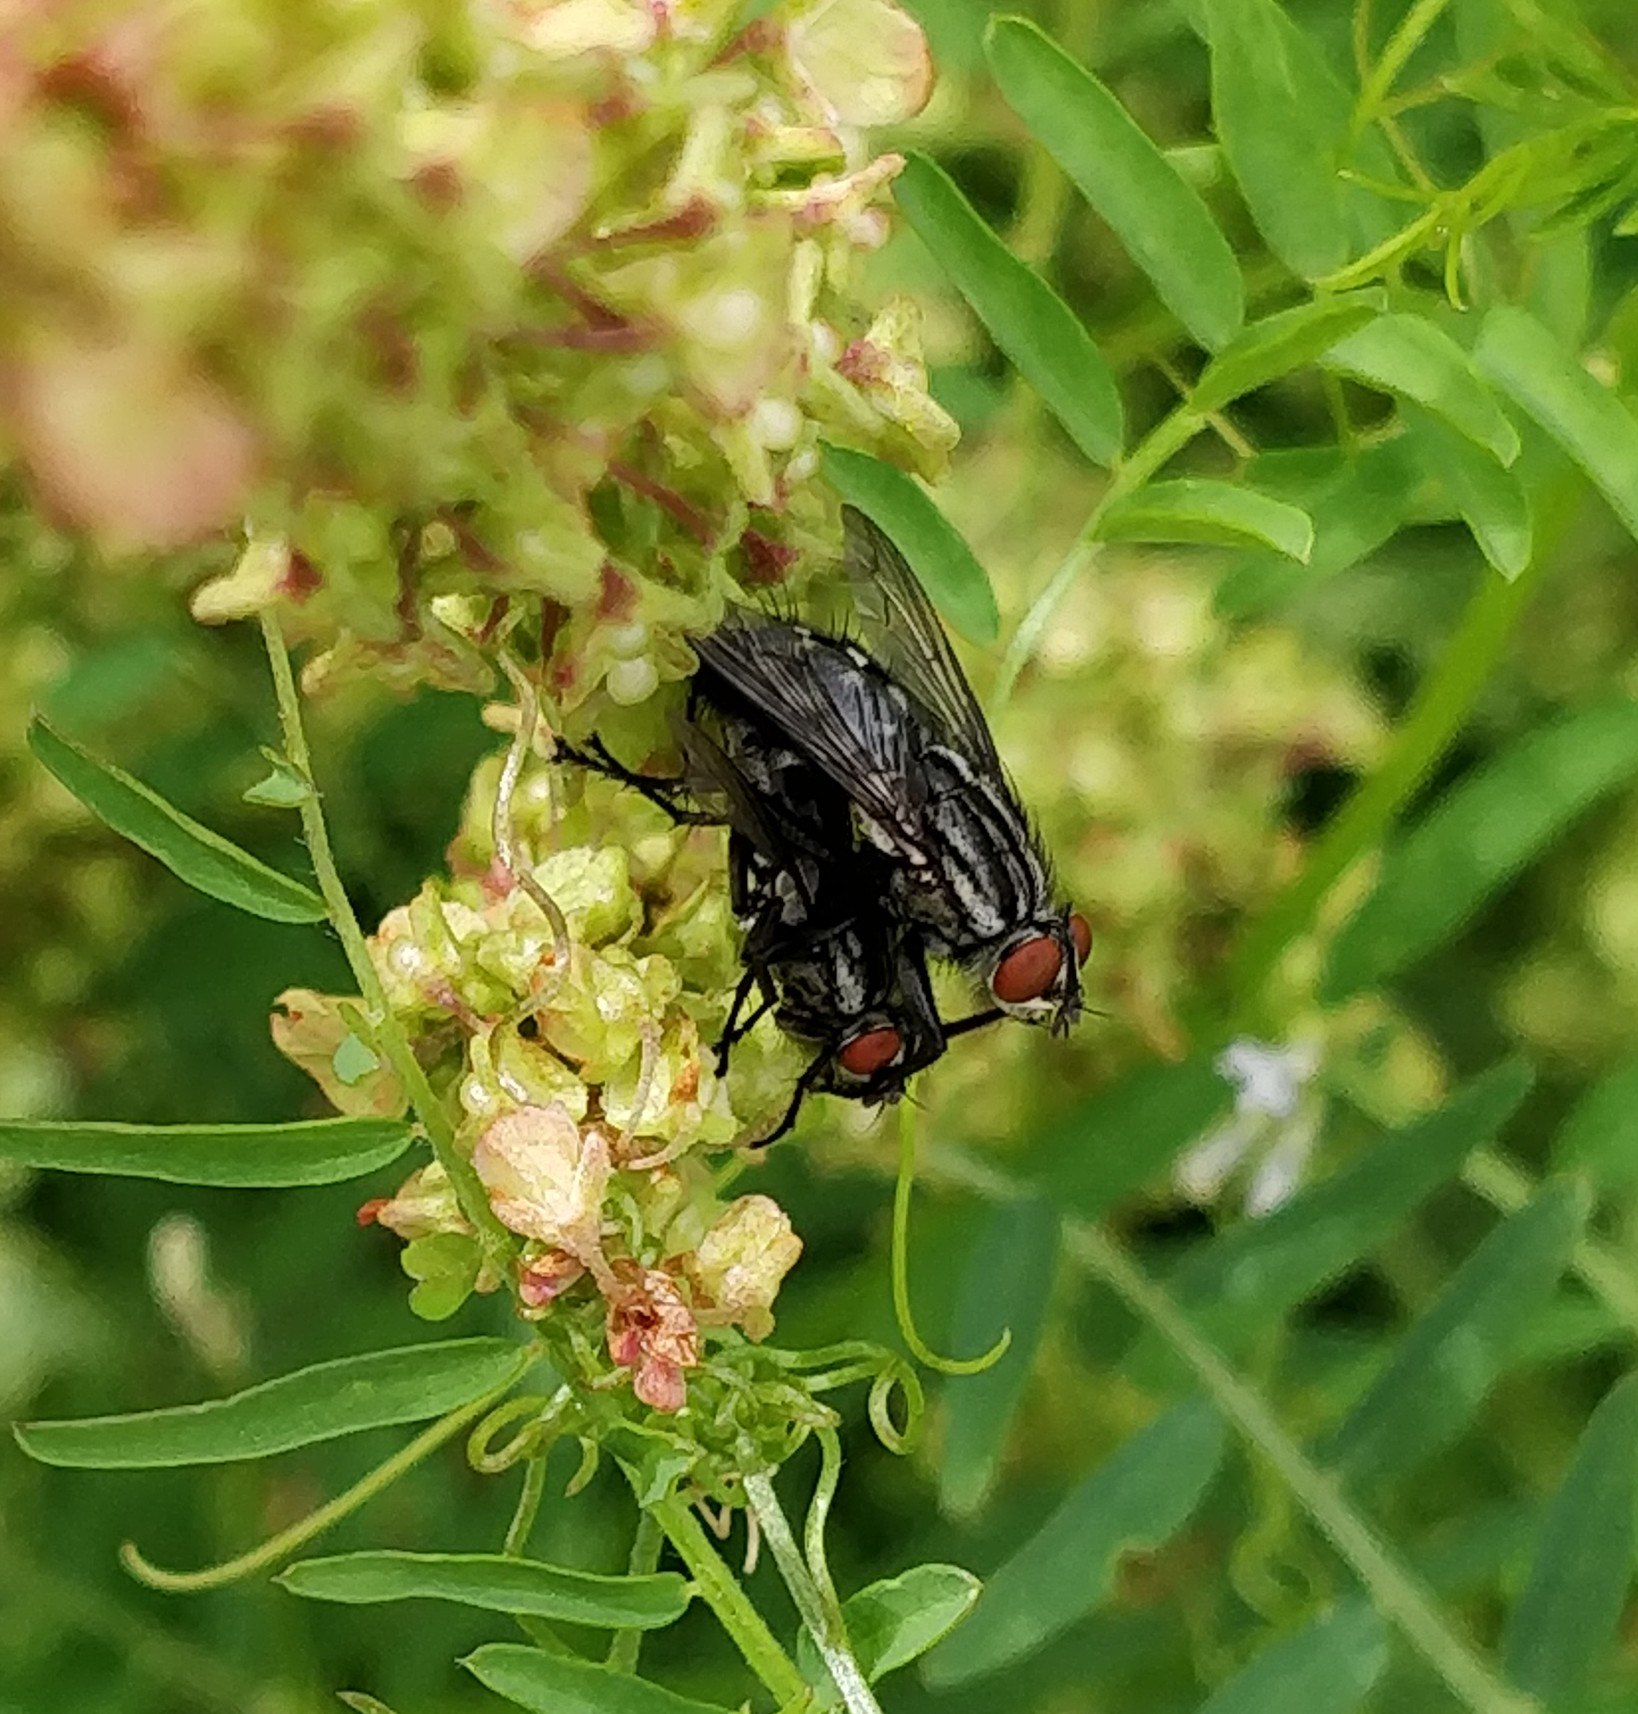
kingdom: Animalia
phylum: Arthropoda
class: Insecta
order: Diptera
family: Sarcophagidae
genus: Sarcophaga
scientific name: Sarcophaga
